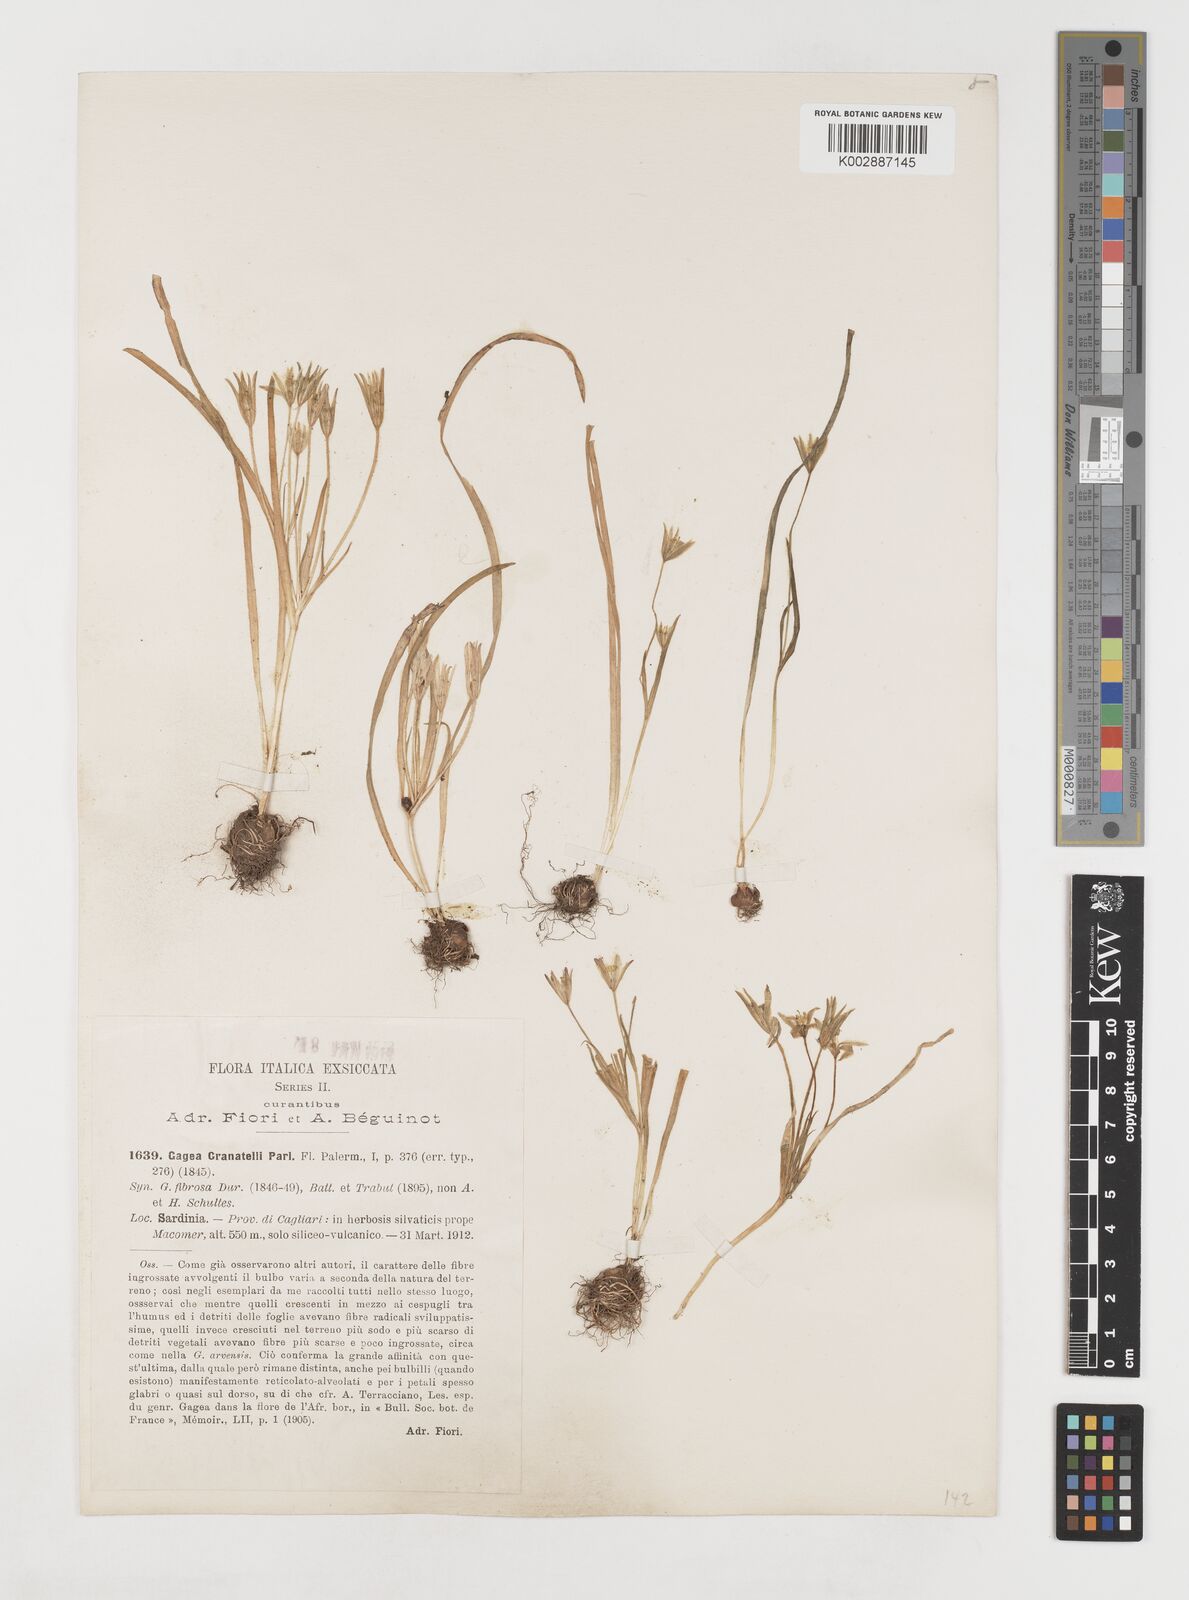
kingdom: Plantae
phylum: Tracheophyta
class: Liliopsida
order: Liliales
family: Liliaceae
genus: Gagea
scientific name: Gagea granatellii
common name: Granatelli’s gagea
